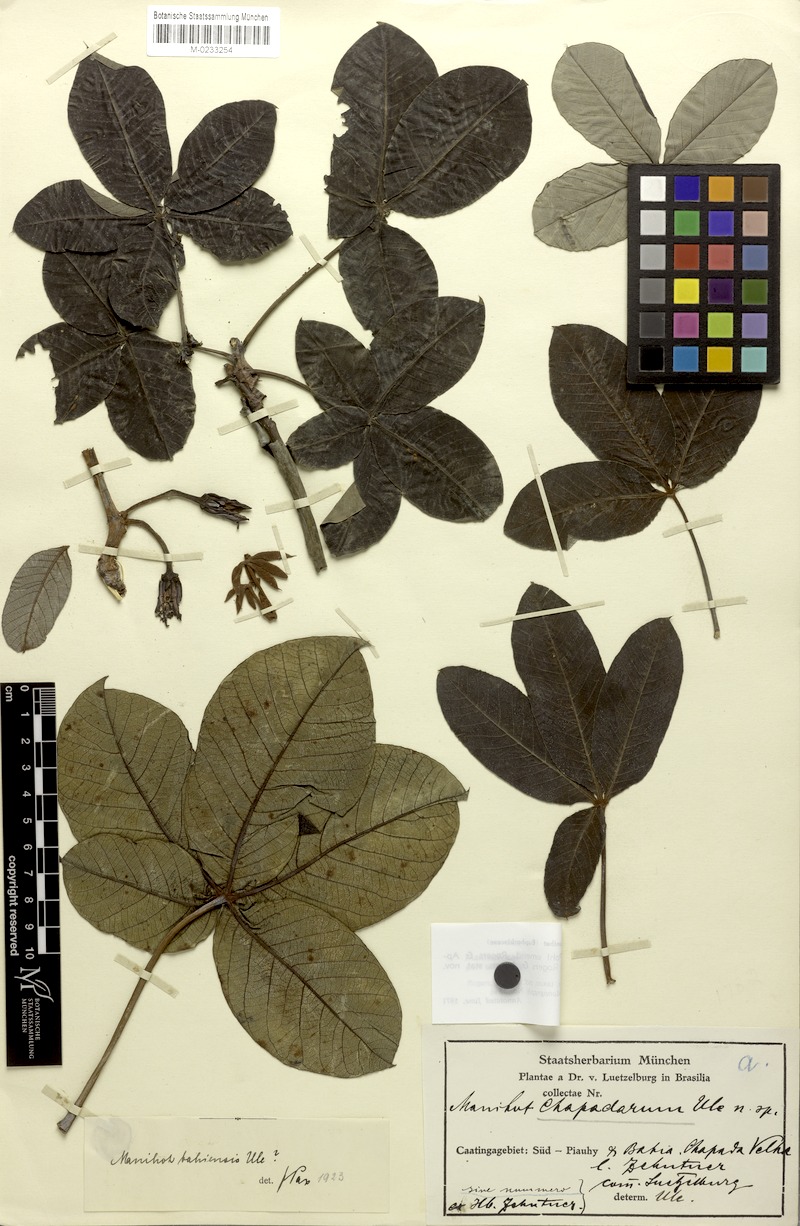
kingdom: Plantae
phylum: Tracheophyta
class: Magnoliopsida
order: Malpighiales
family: Euphorbiaceae
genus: Manihot
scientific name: Manihot caerulescens
